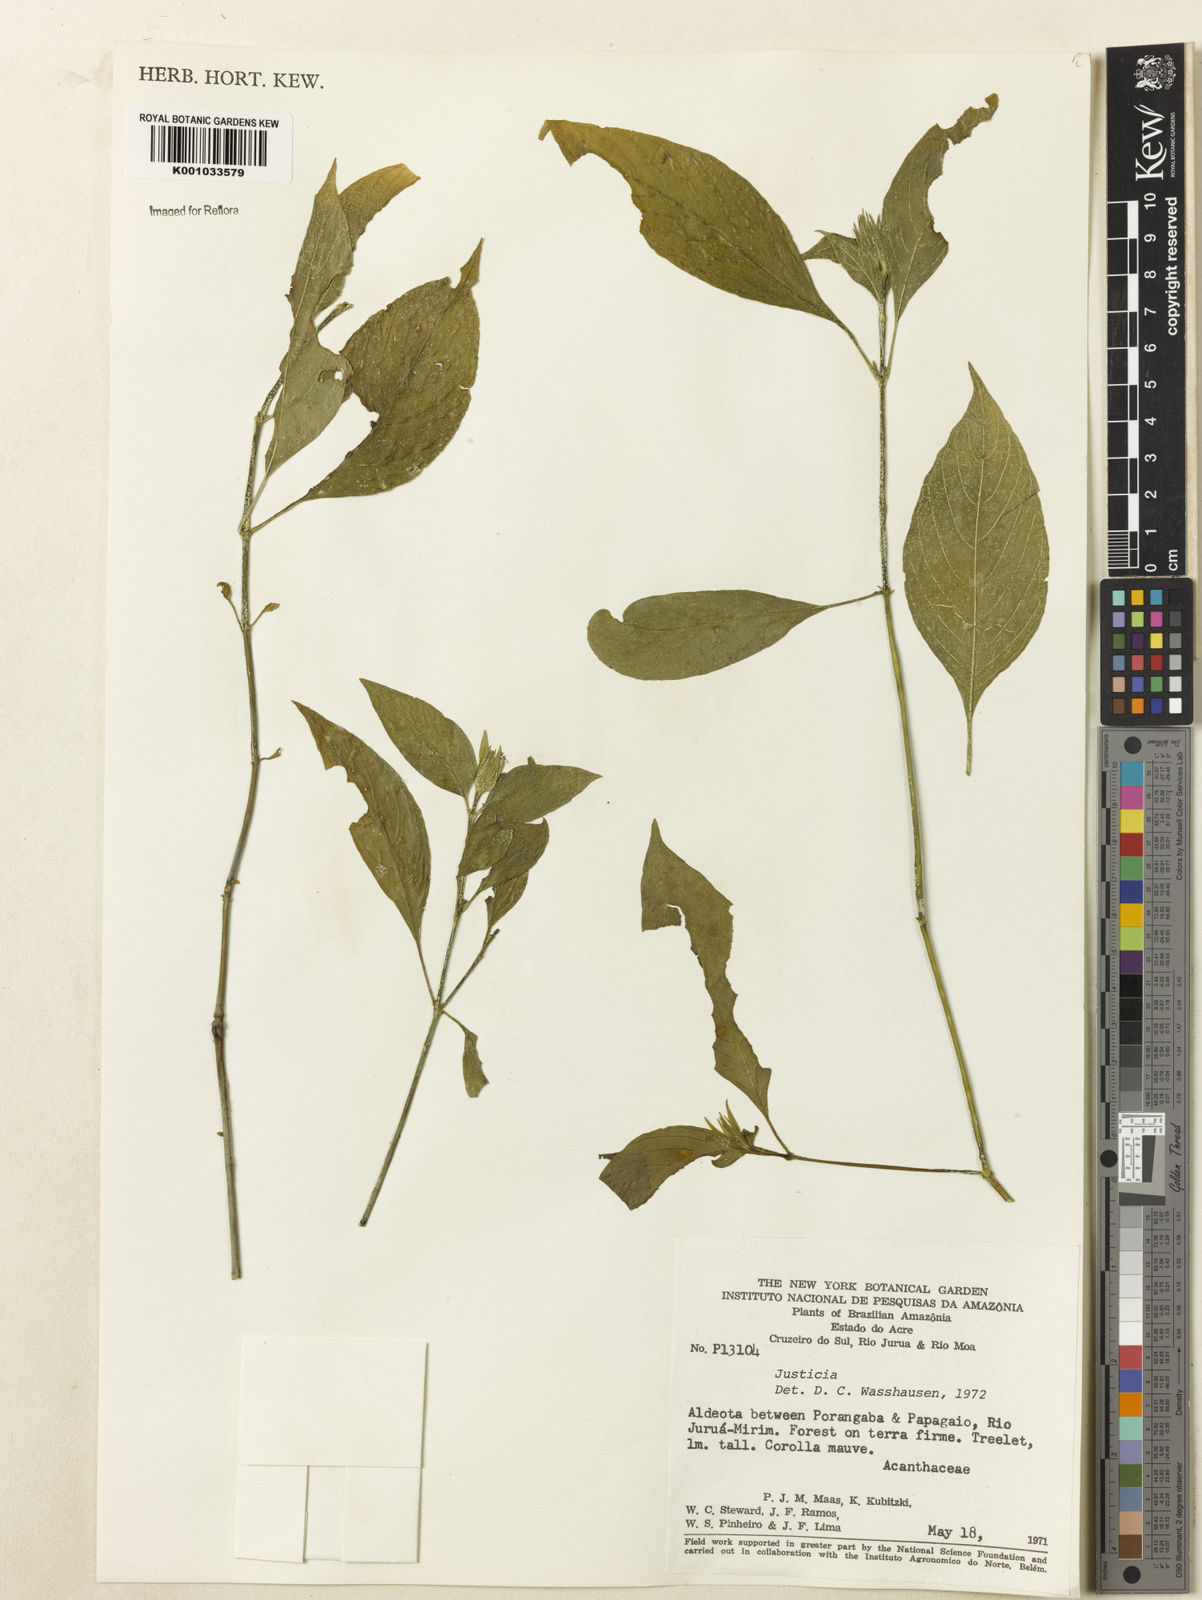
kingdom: Plantae
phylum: Tracheophyta
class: Magnoliopsida
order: Lamiales
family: Acanthaceae
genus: Justicia
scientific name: Justicia
